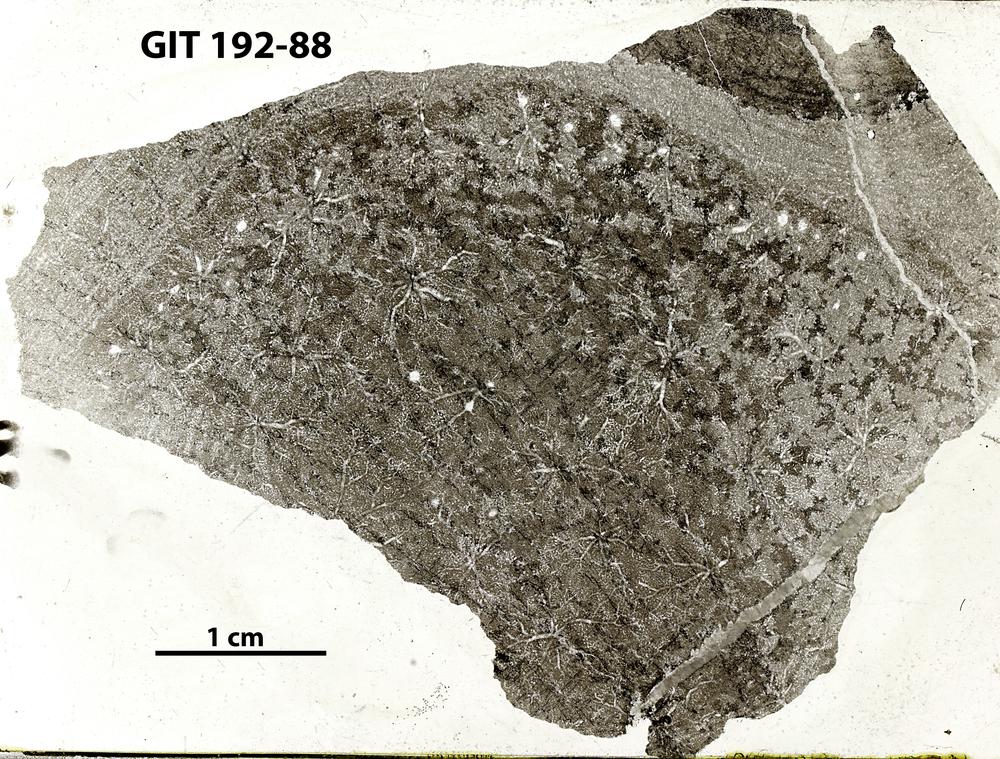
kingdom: Animalia
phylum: Porifera
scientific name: Porifera
